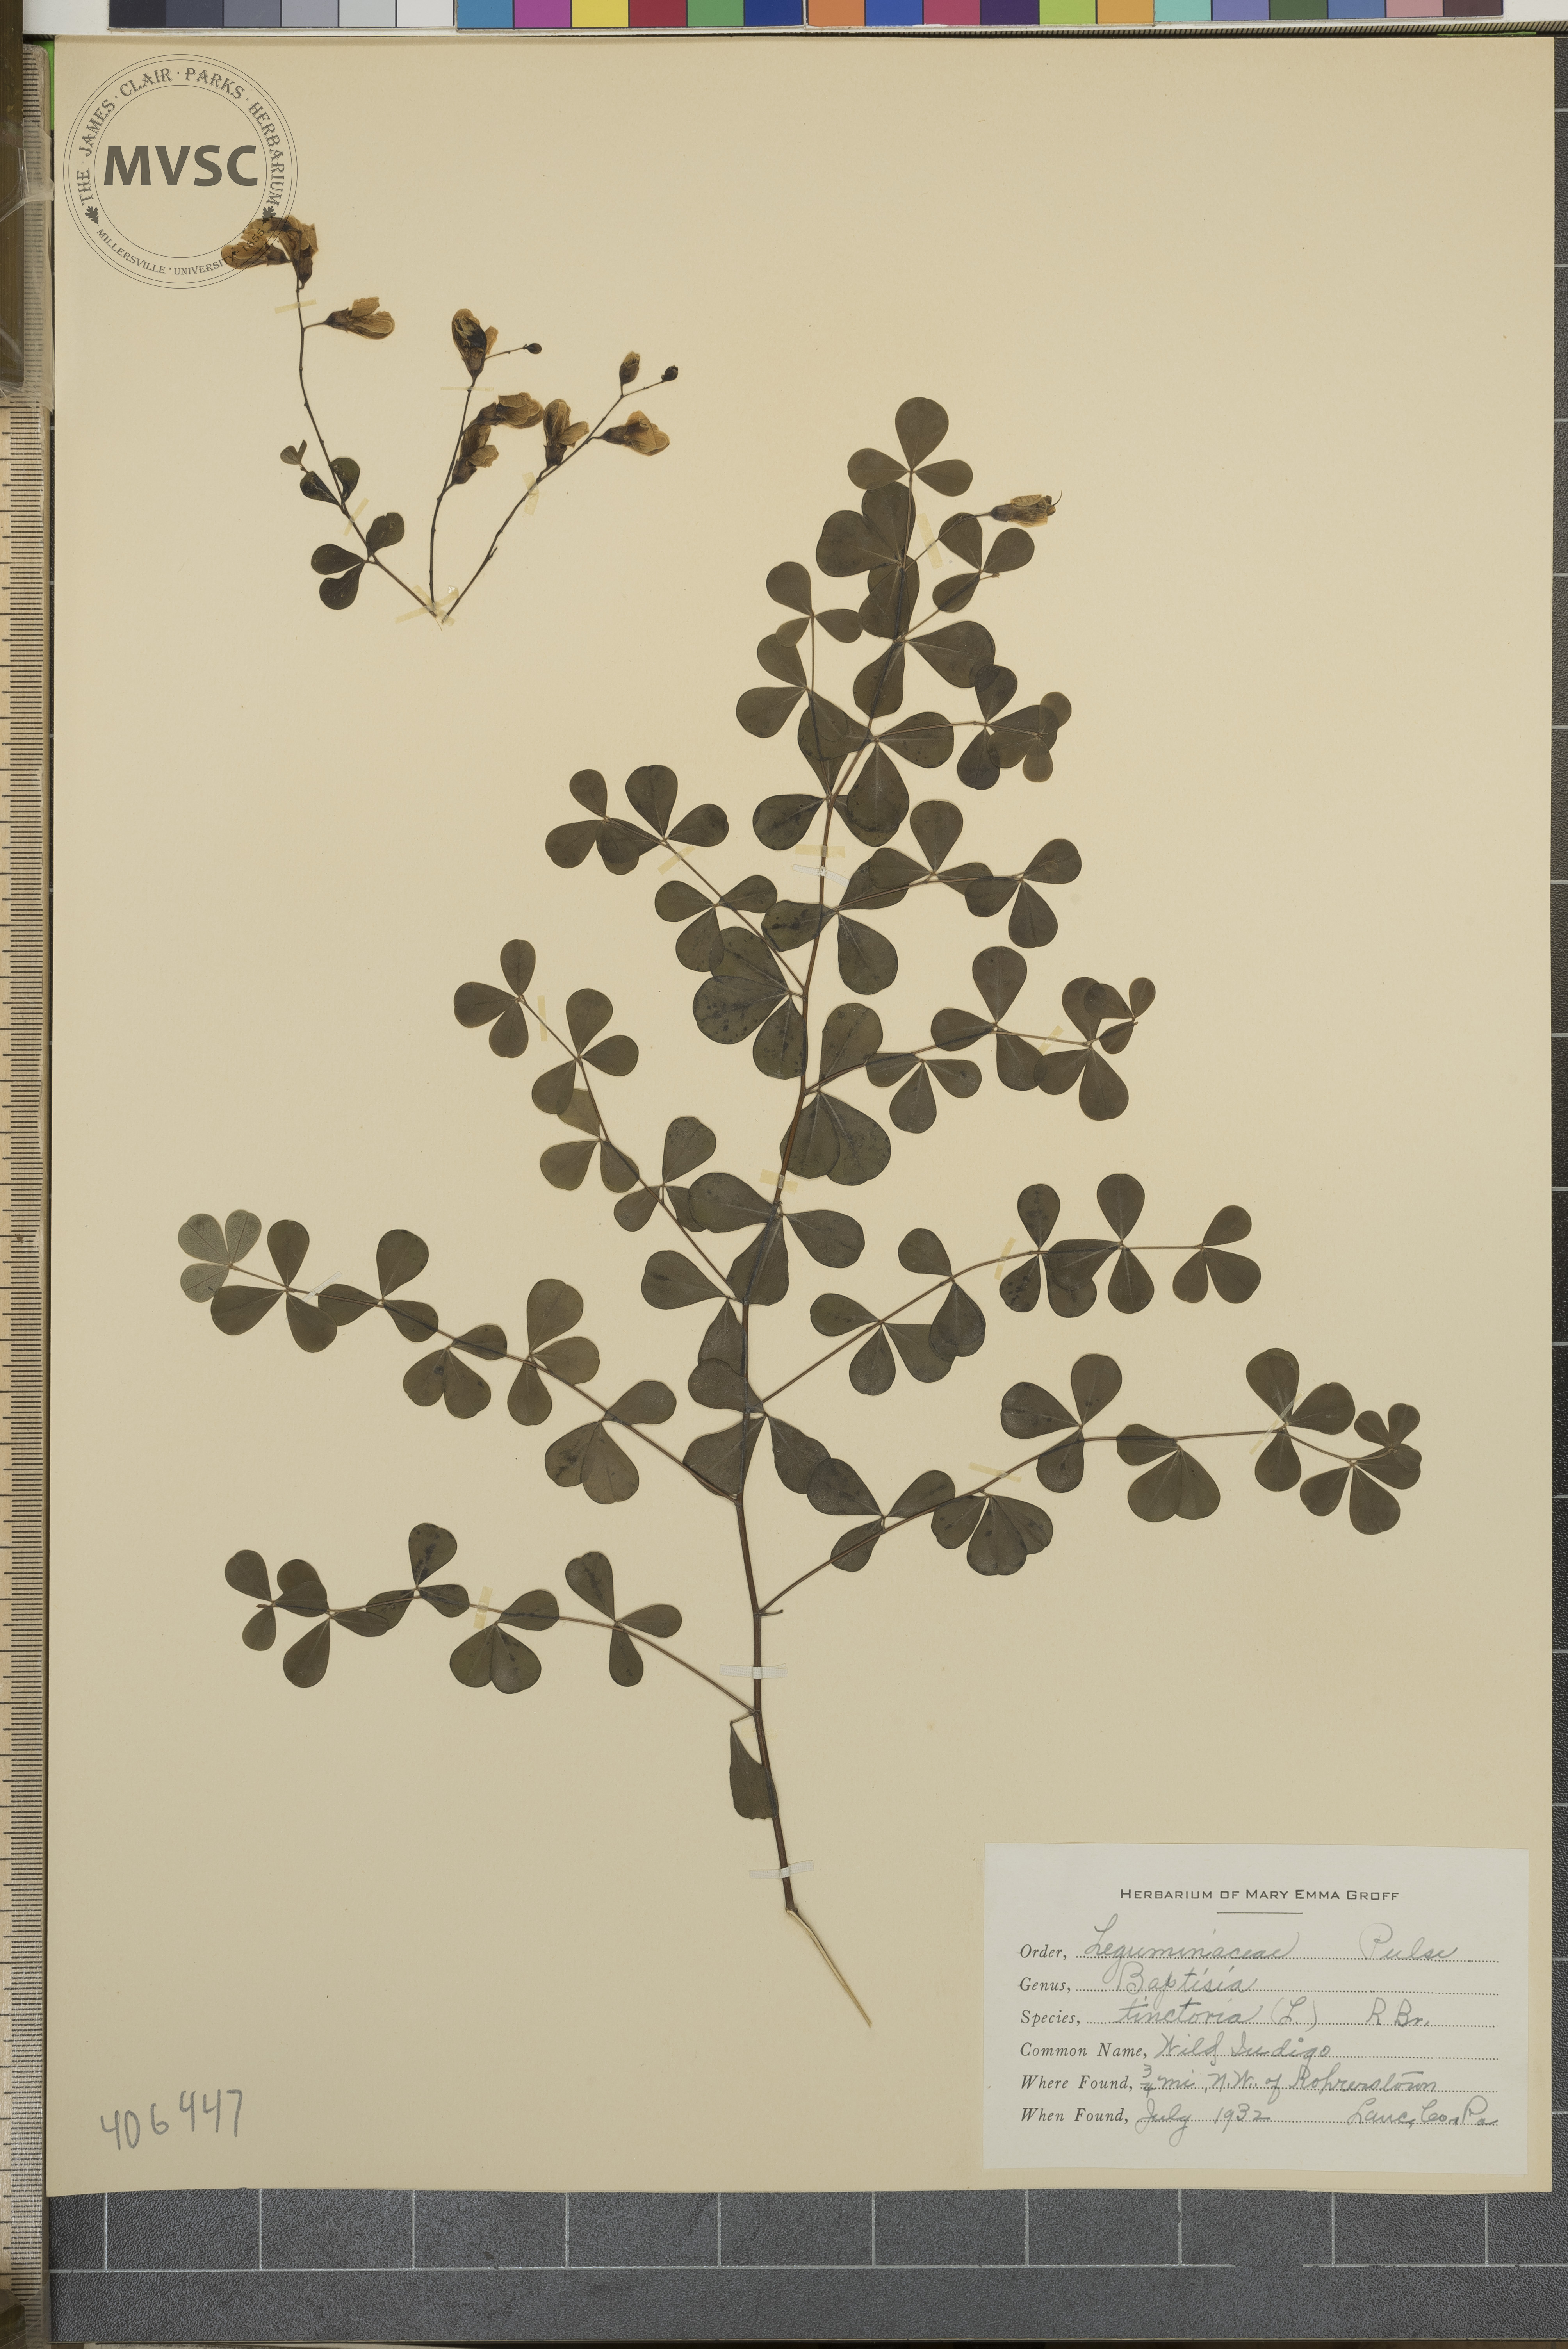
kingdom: Plantae
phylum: Tracheophyta
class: Magnoliopsida
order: Fabales
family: Fabaceae
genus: Baptisia
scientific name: Baptisia tinctoria
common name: Wild Indigo
